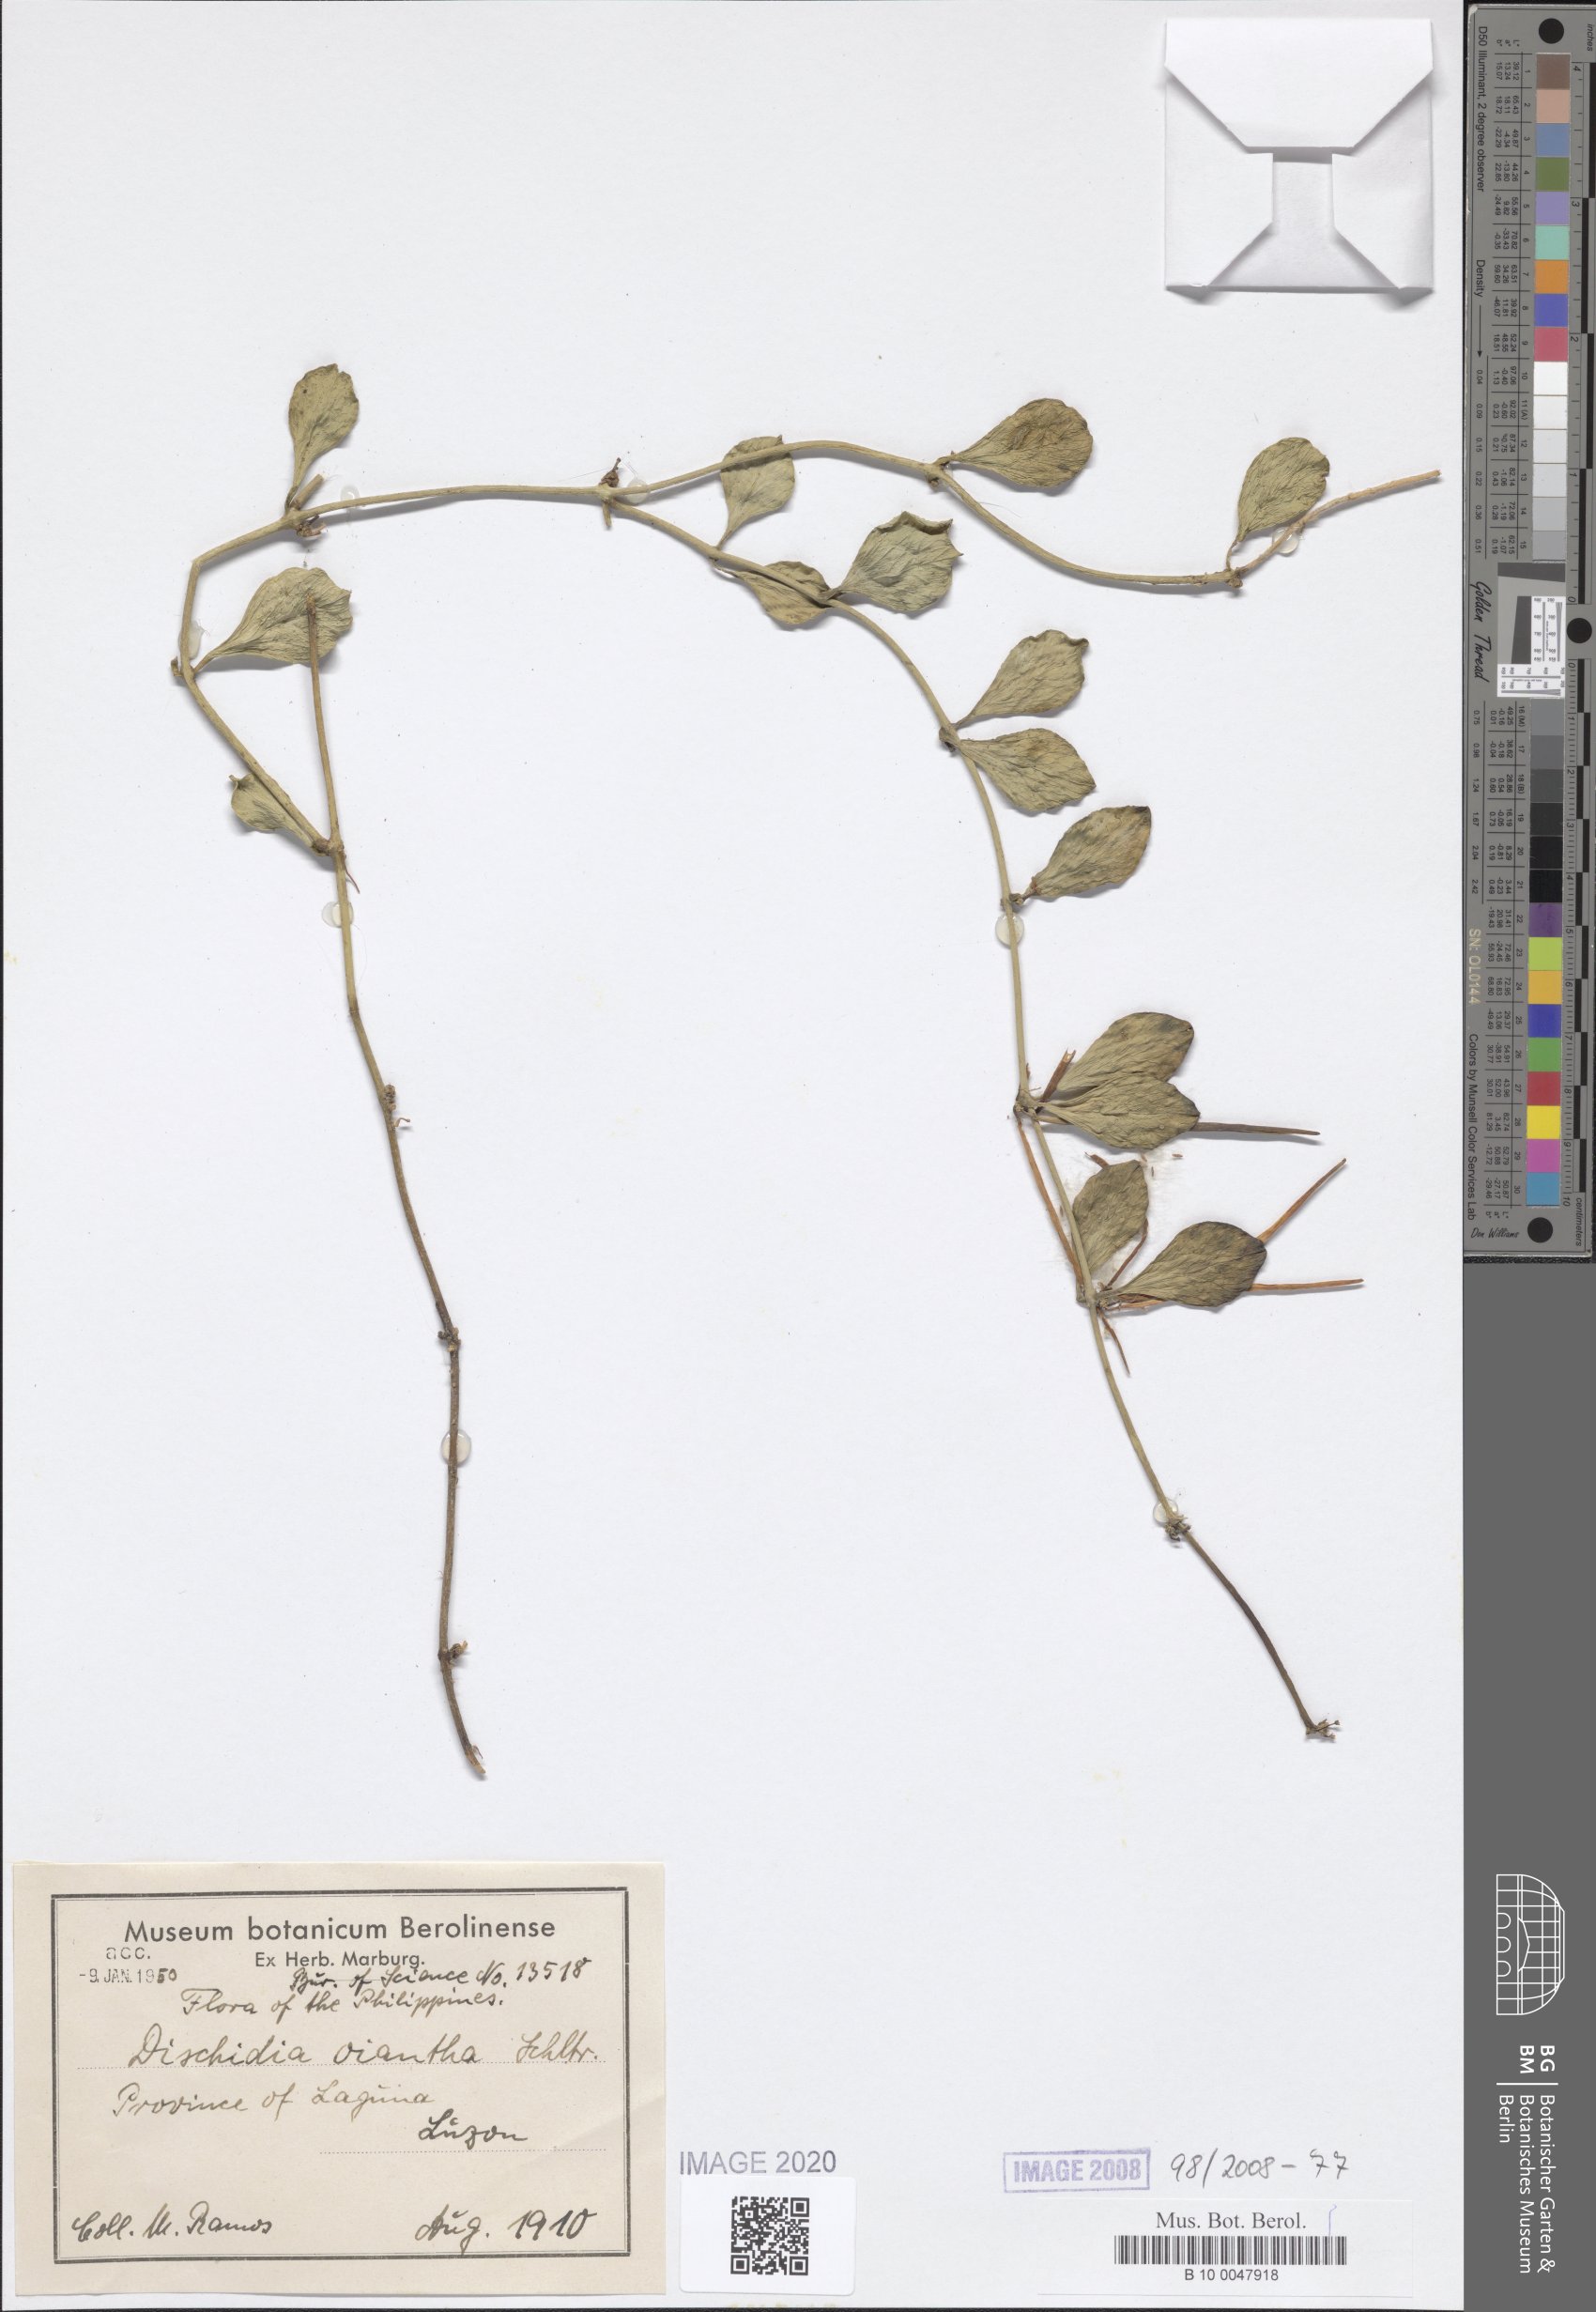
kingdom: Plantae
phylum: Tracheophyta
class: Magnoliopsida
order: Gentianales
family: Apocynaceae
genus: Dischidia
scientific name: Dischidia
